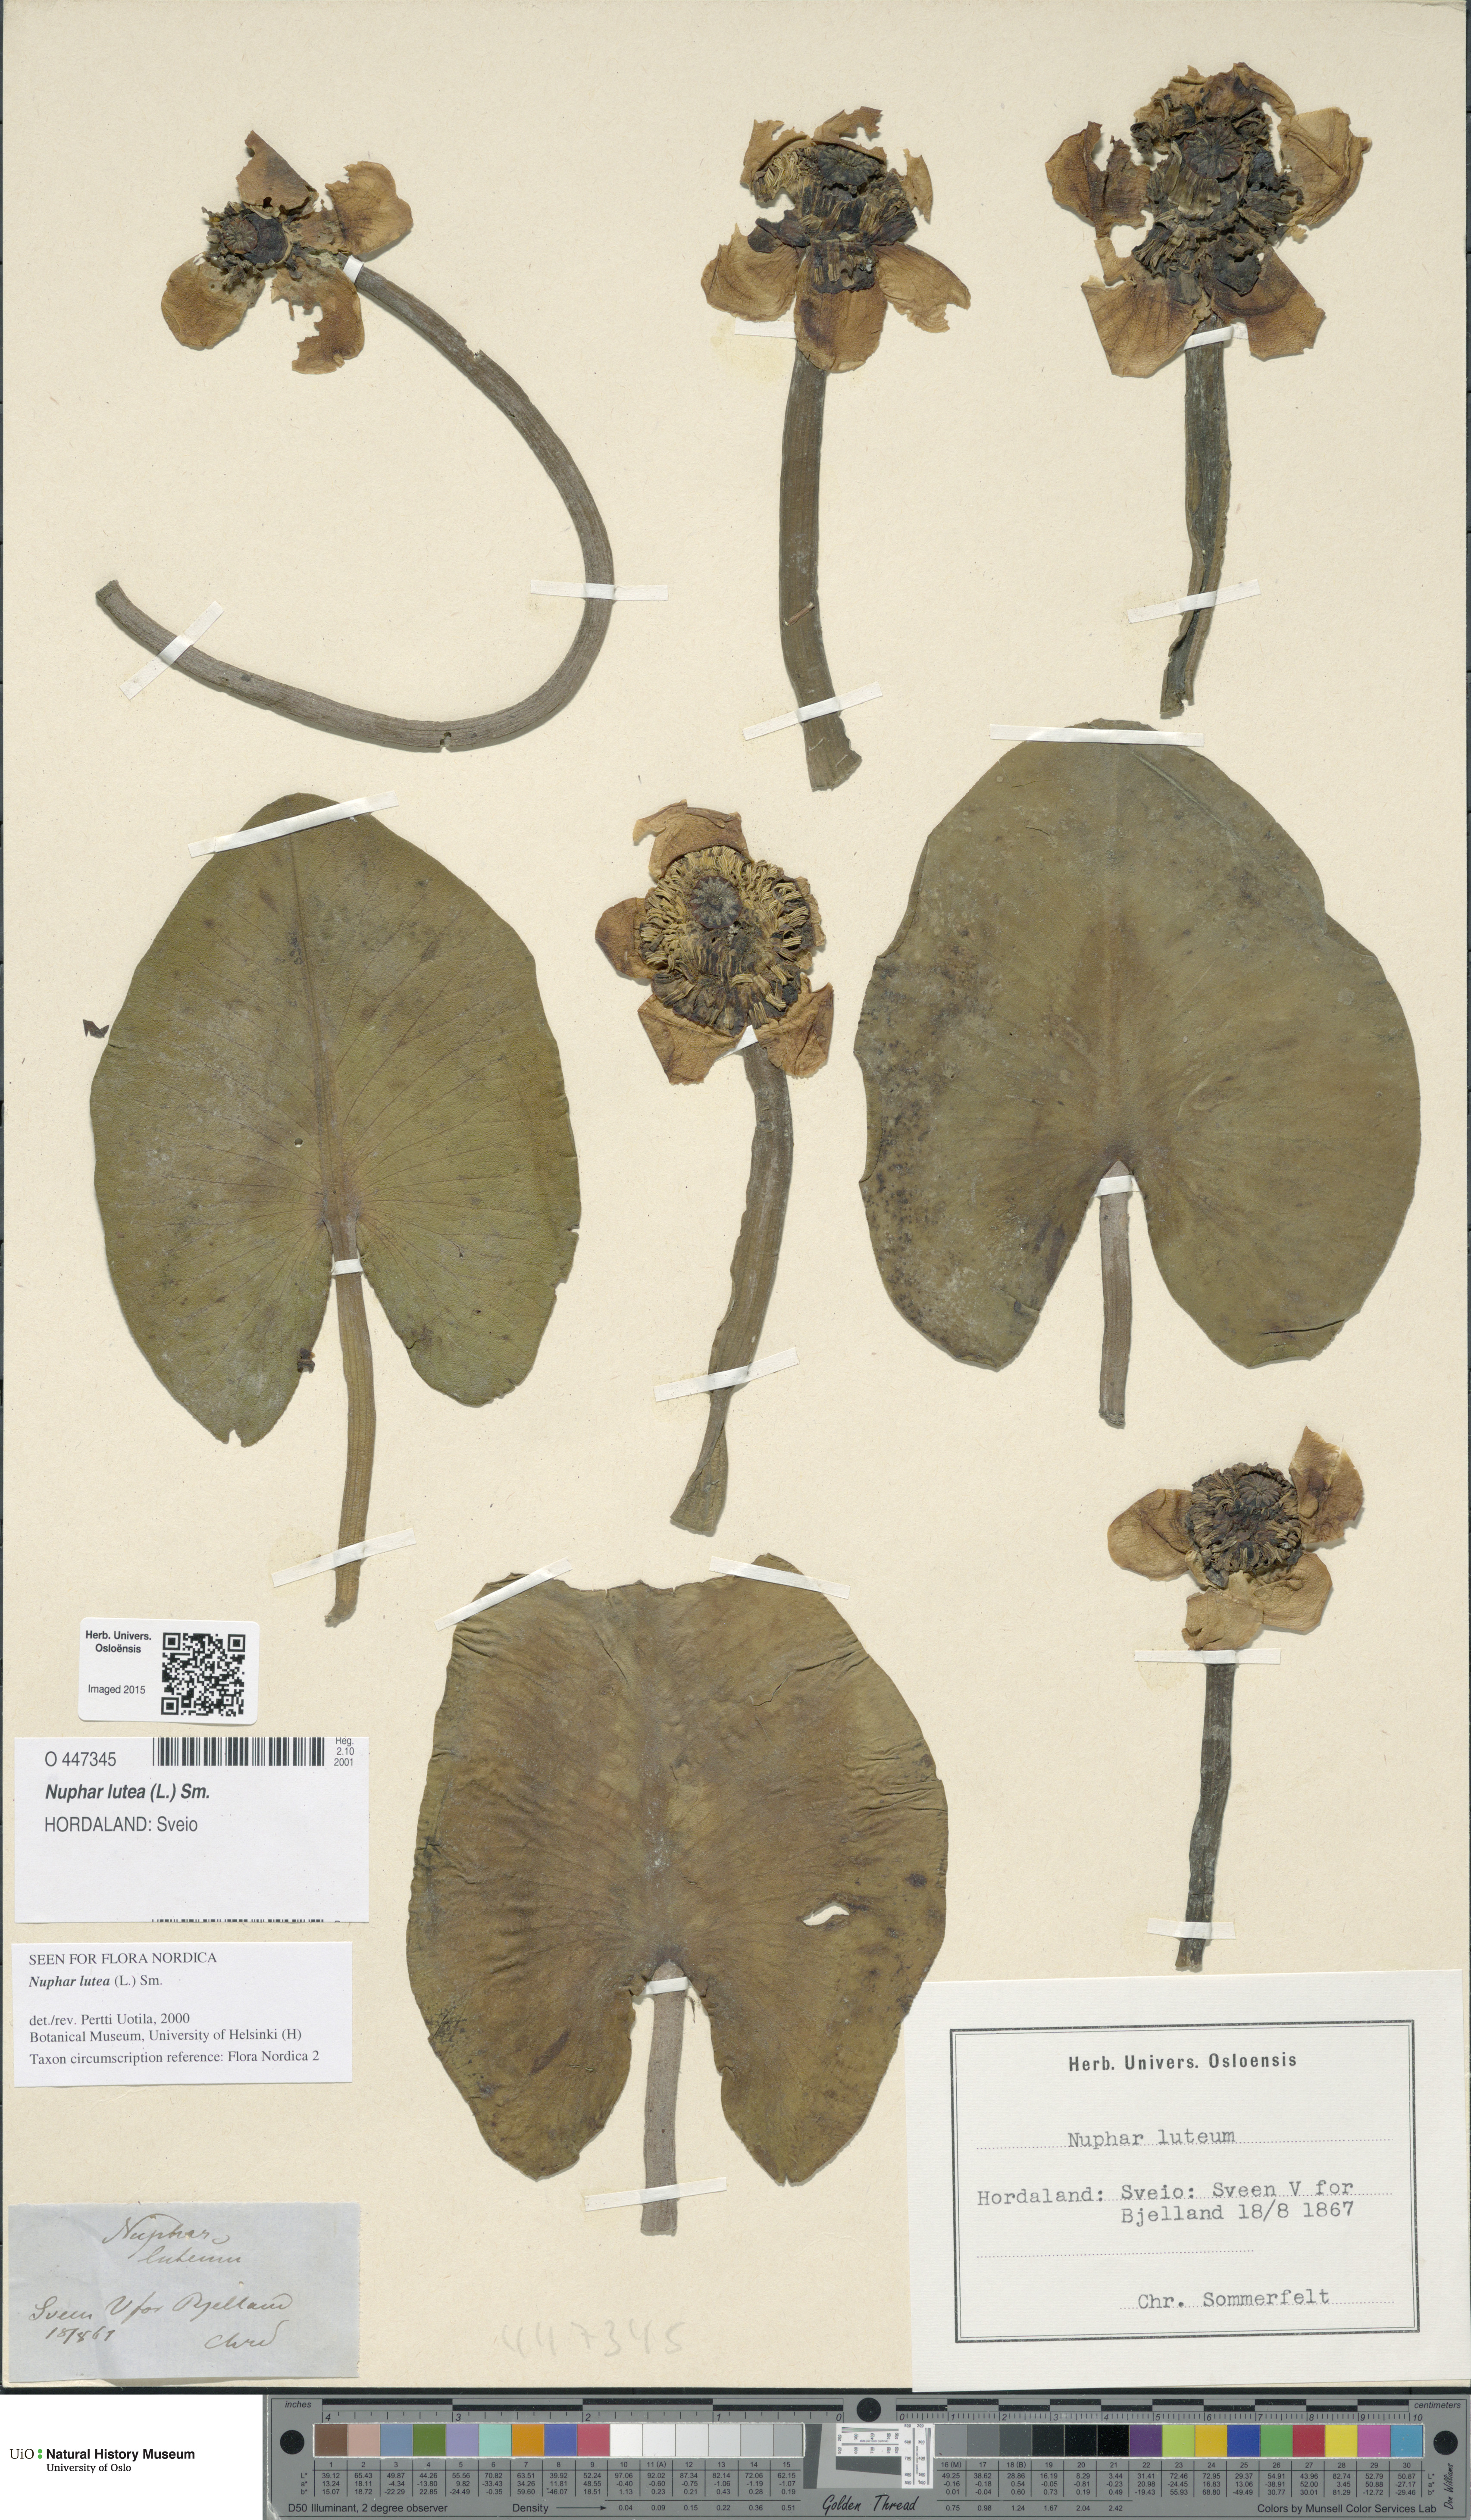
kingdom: Plantae
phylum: Tracheophyta
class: Magnoliopsida
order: Nymphaeales
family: Nymphaeaceae
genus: Nuphar
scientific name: Nuphar lutea
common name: Yellow water-lily
